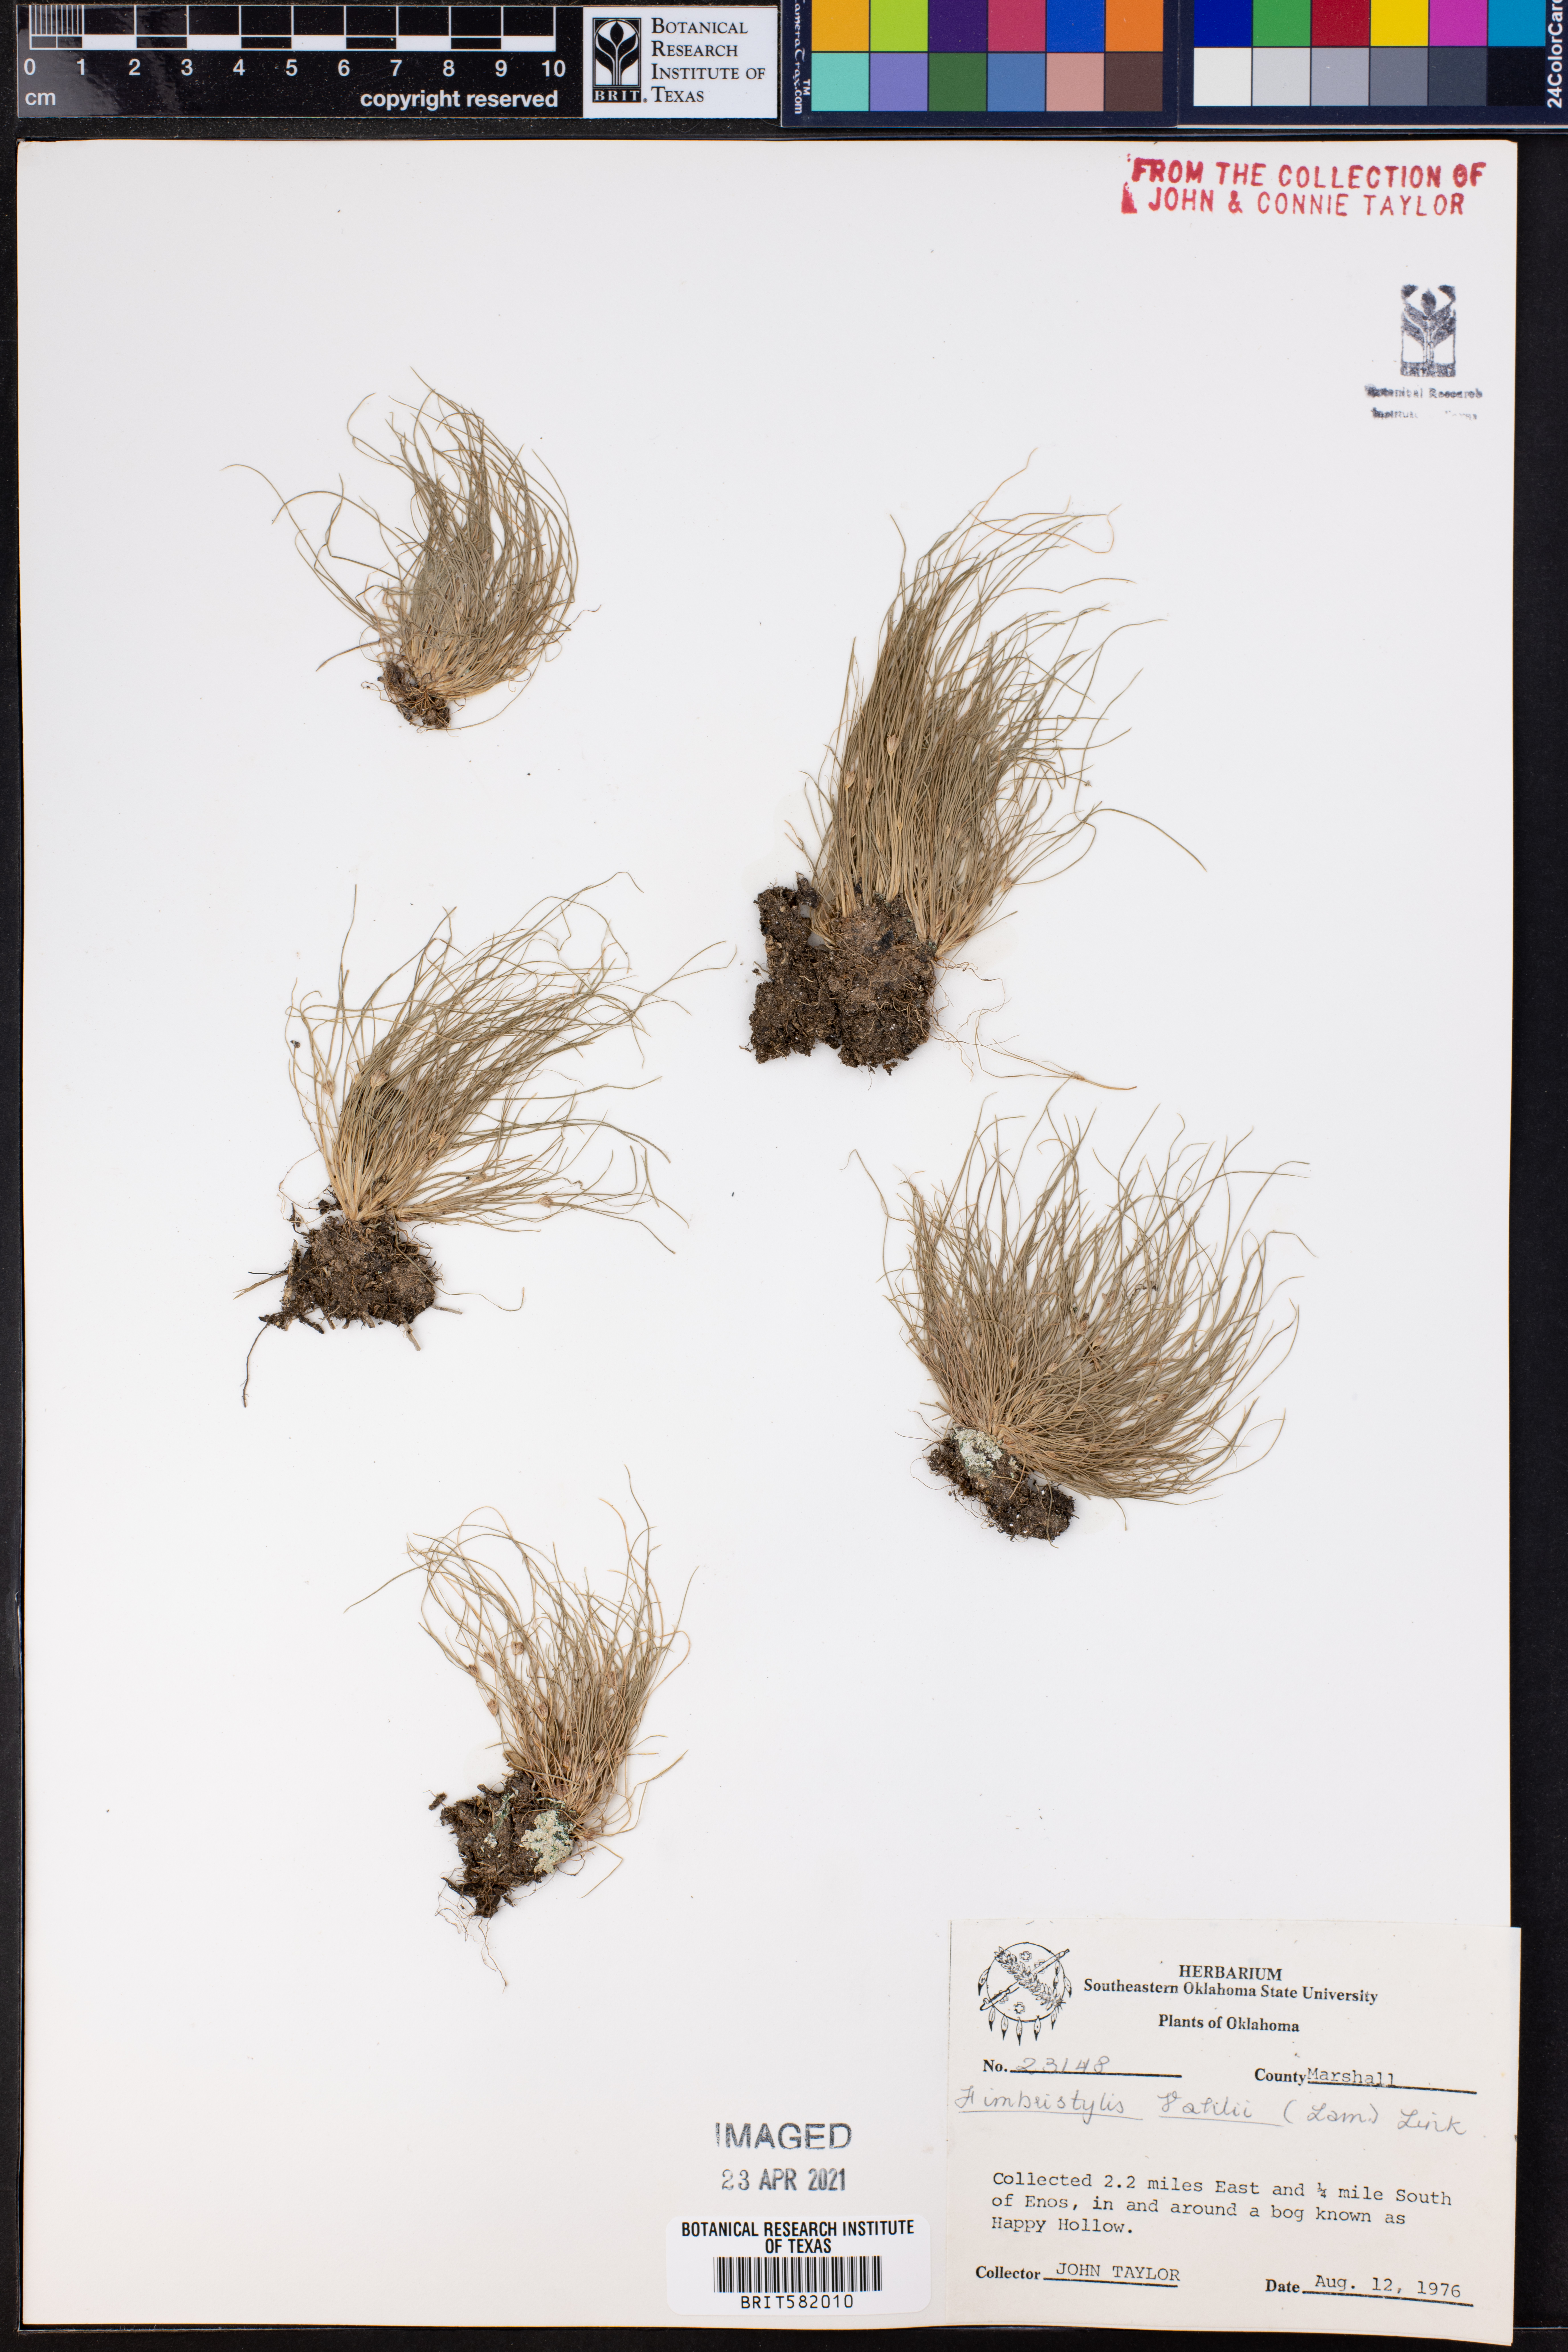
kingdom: Plantae
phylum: Tracheophyta
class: Liliopsida
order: Poales
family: Cyperaceae
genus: Fimbristylis
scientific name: Fimbristylis vahlii
